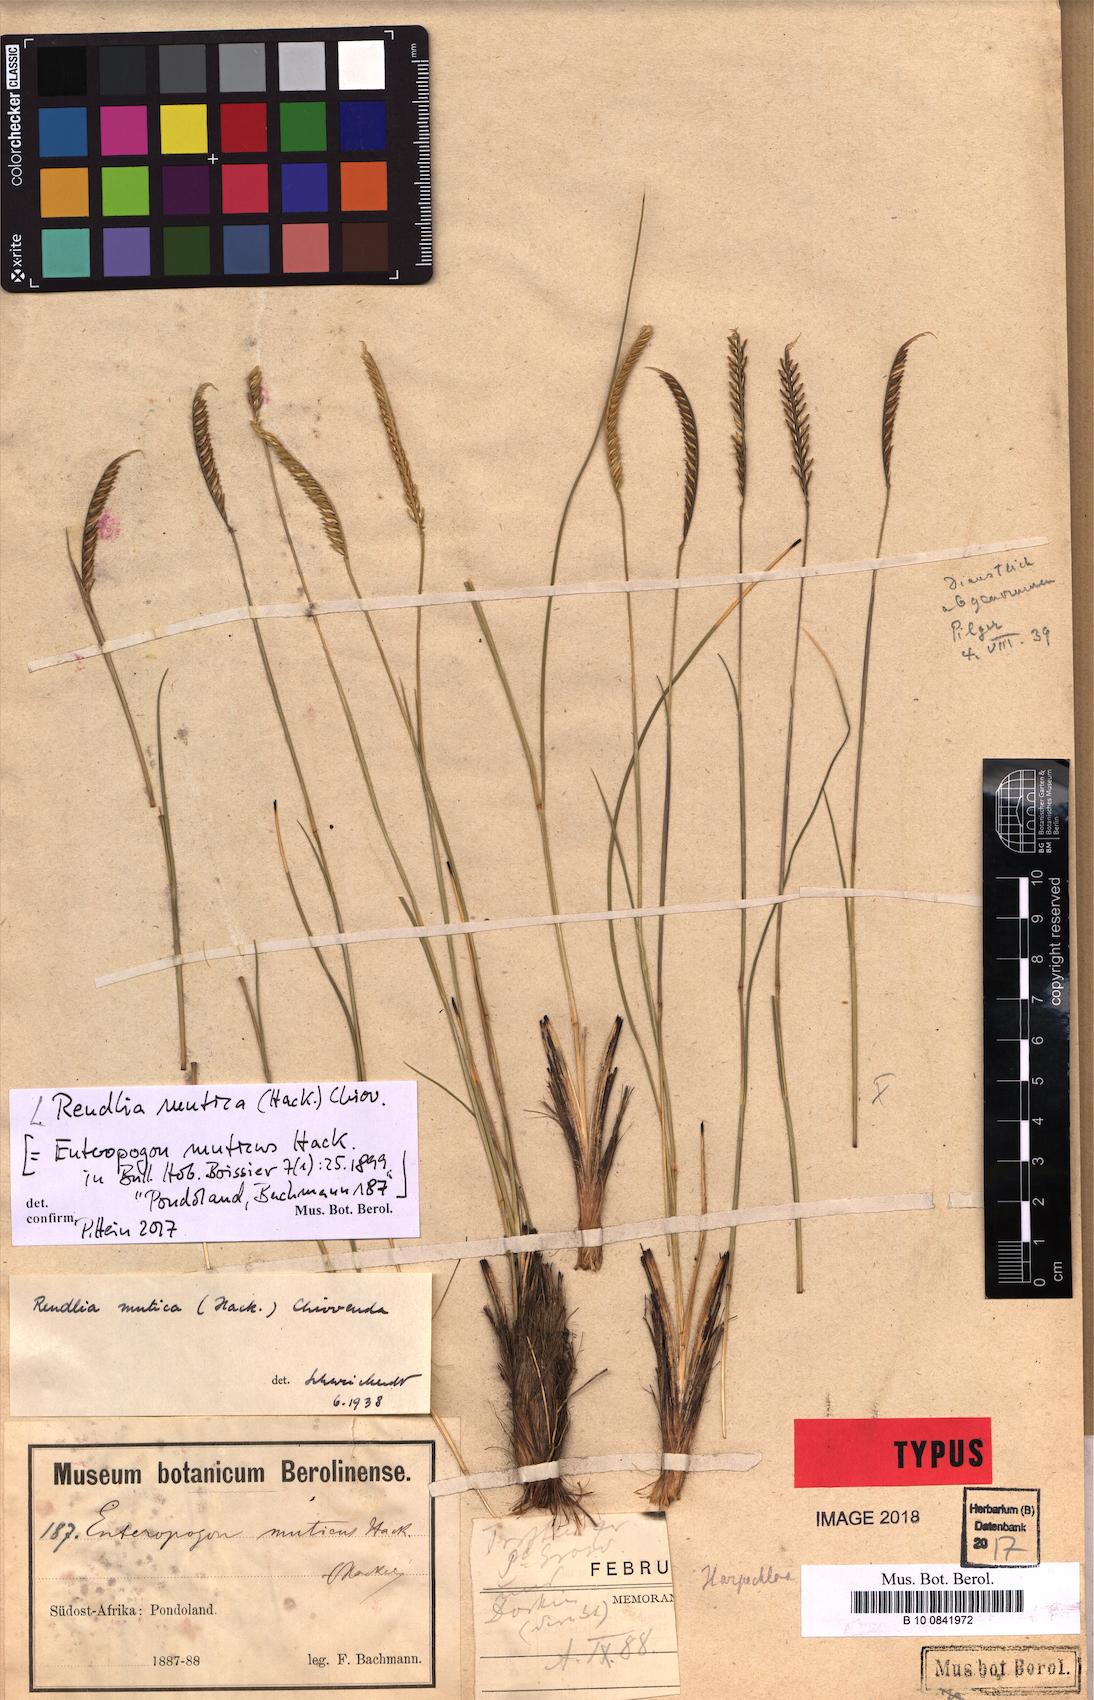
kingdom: Plantae
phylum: Tracheophyta
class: Liliopsida
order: Poales
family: Poaceae
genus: Microchloa
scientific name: Microchloa altera
